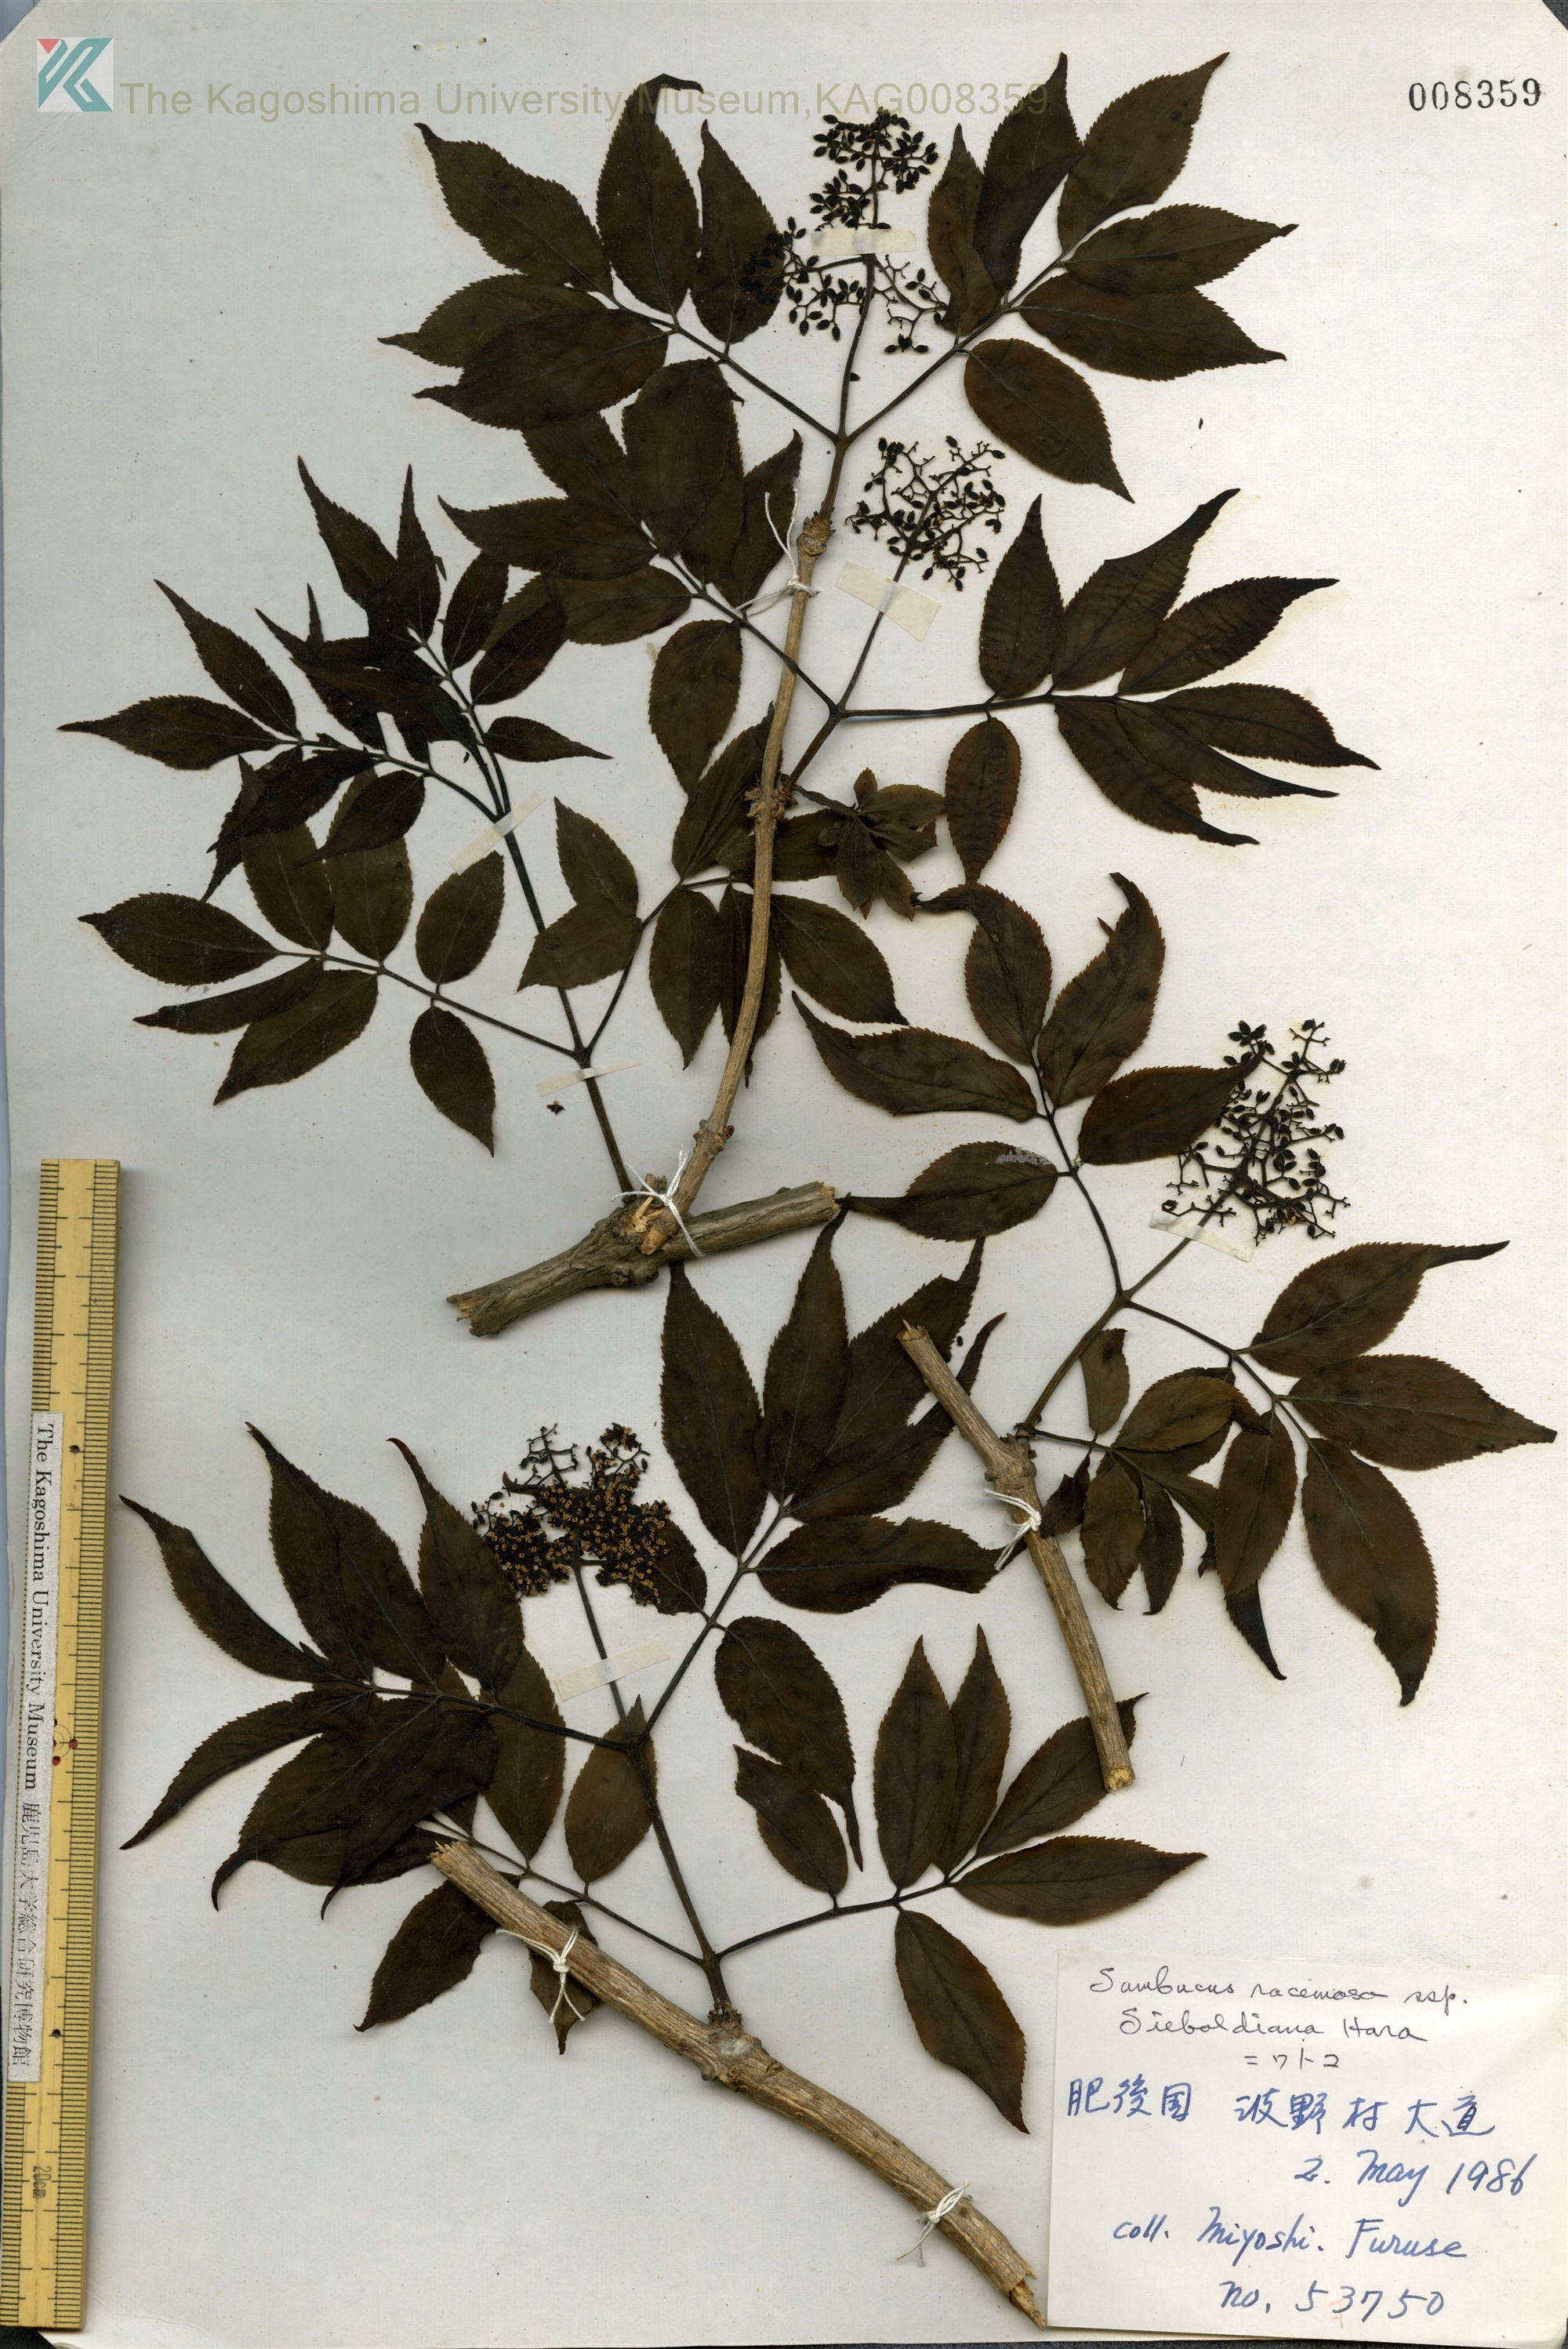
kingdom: Plantae
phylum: Tracheophyta
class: Magnoliopsida
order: Dipsacales
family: Viburnaceae
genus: Sambucus
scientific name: Sambucus sieboldiana
